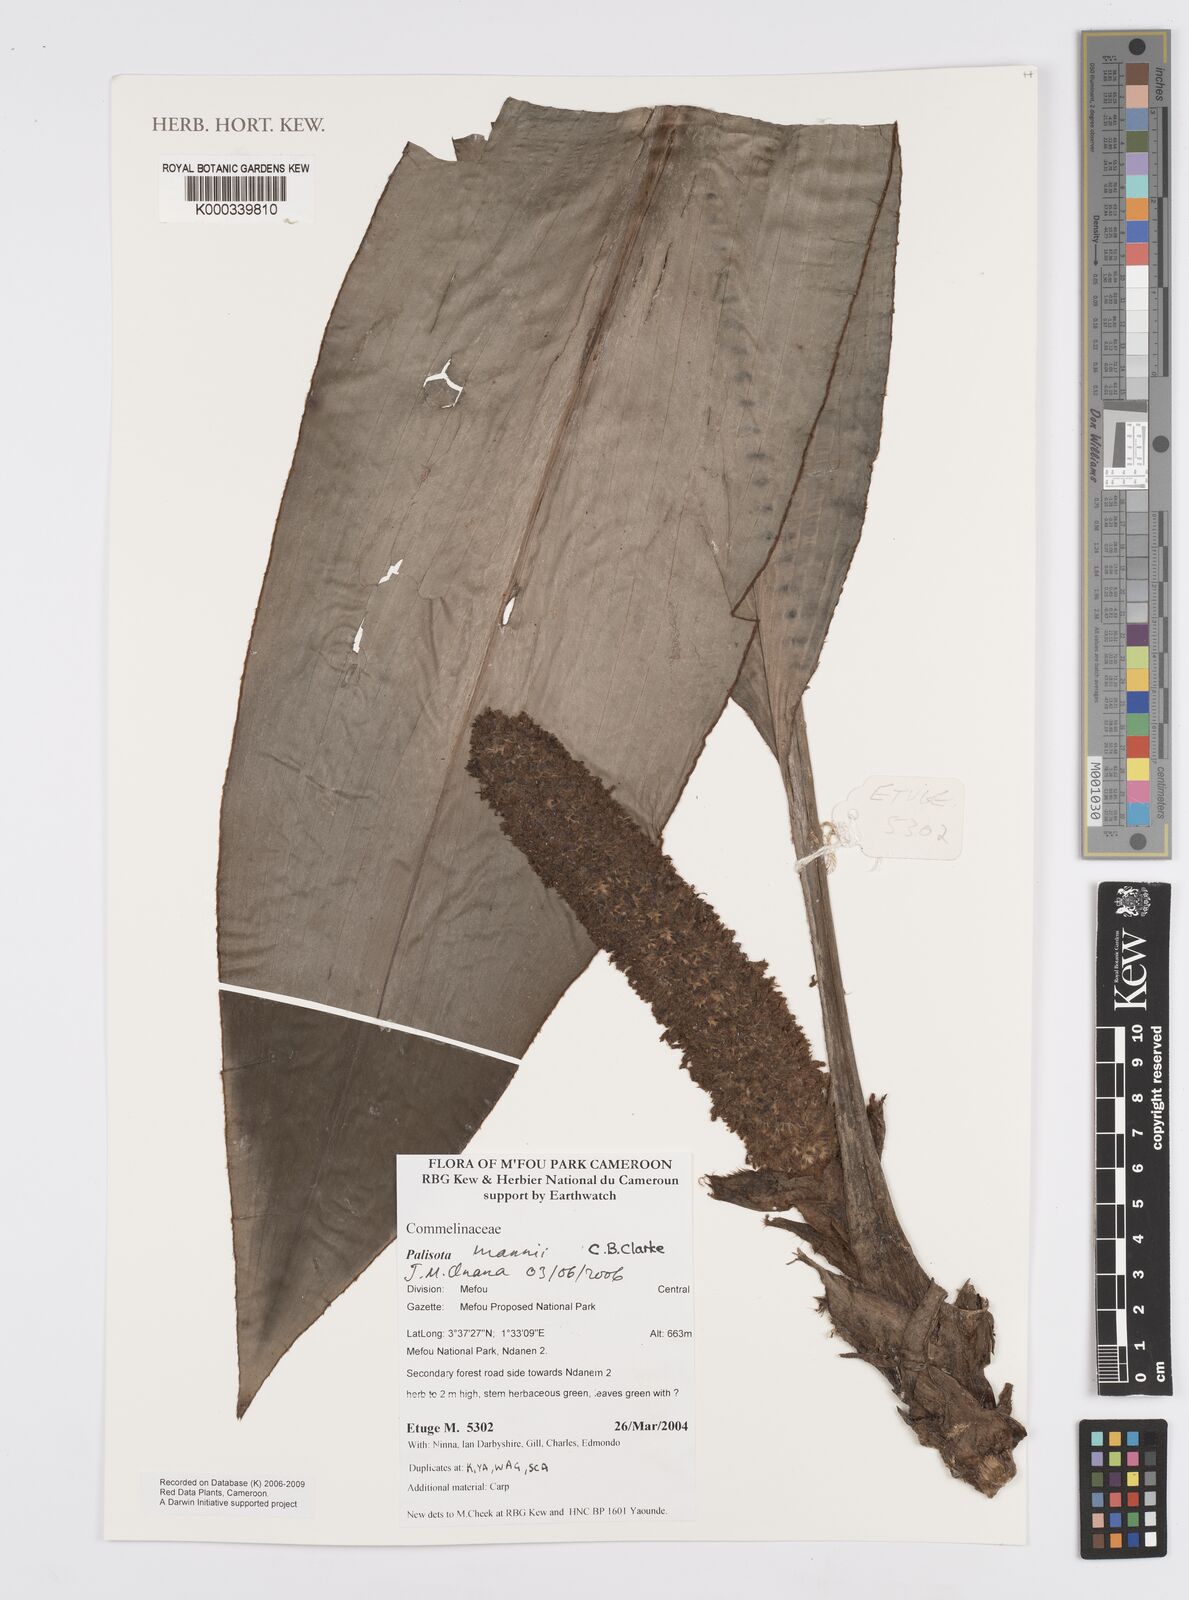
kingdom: Plantae
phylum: Tracheophyta
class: Liliopsida
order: Commelinales
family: Commelinaceae
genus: Palisota
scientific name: Palisota mannii
